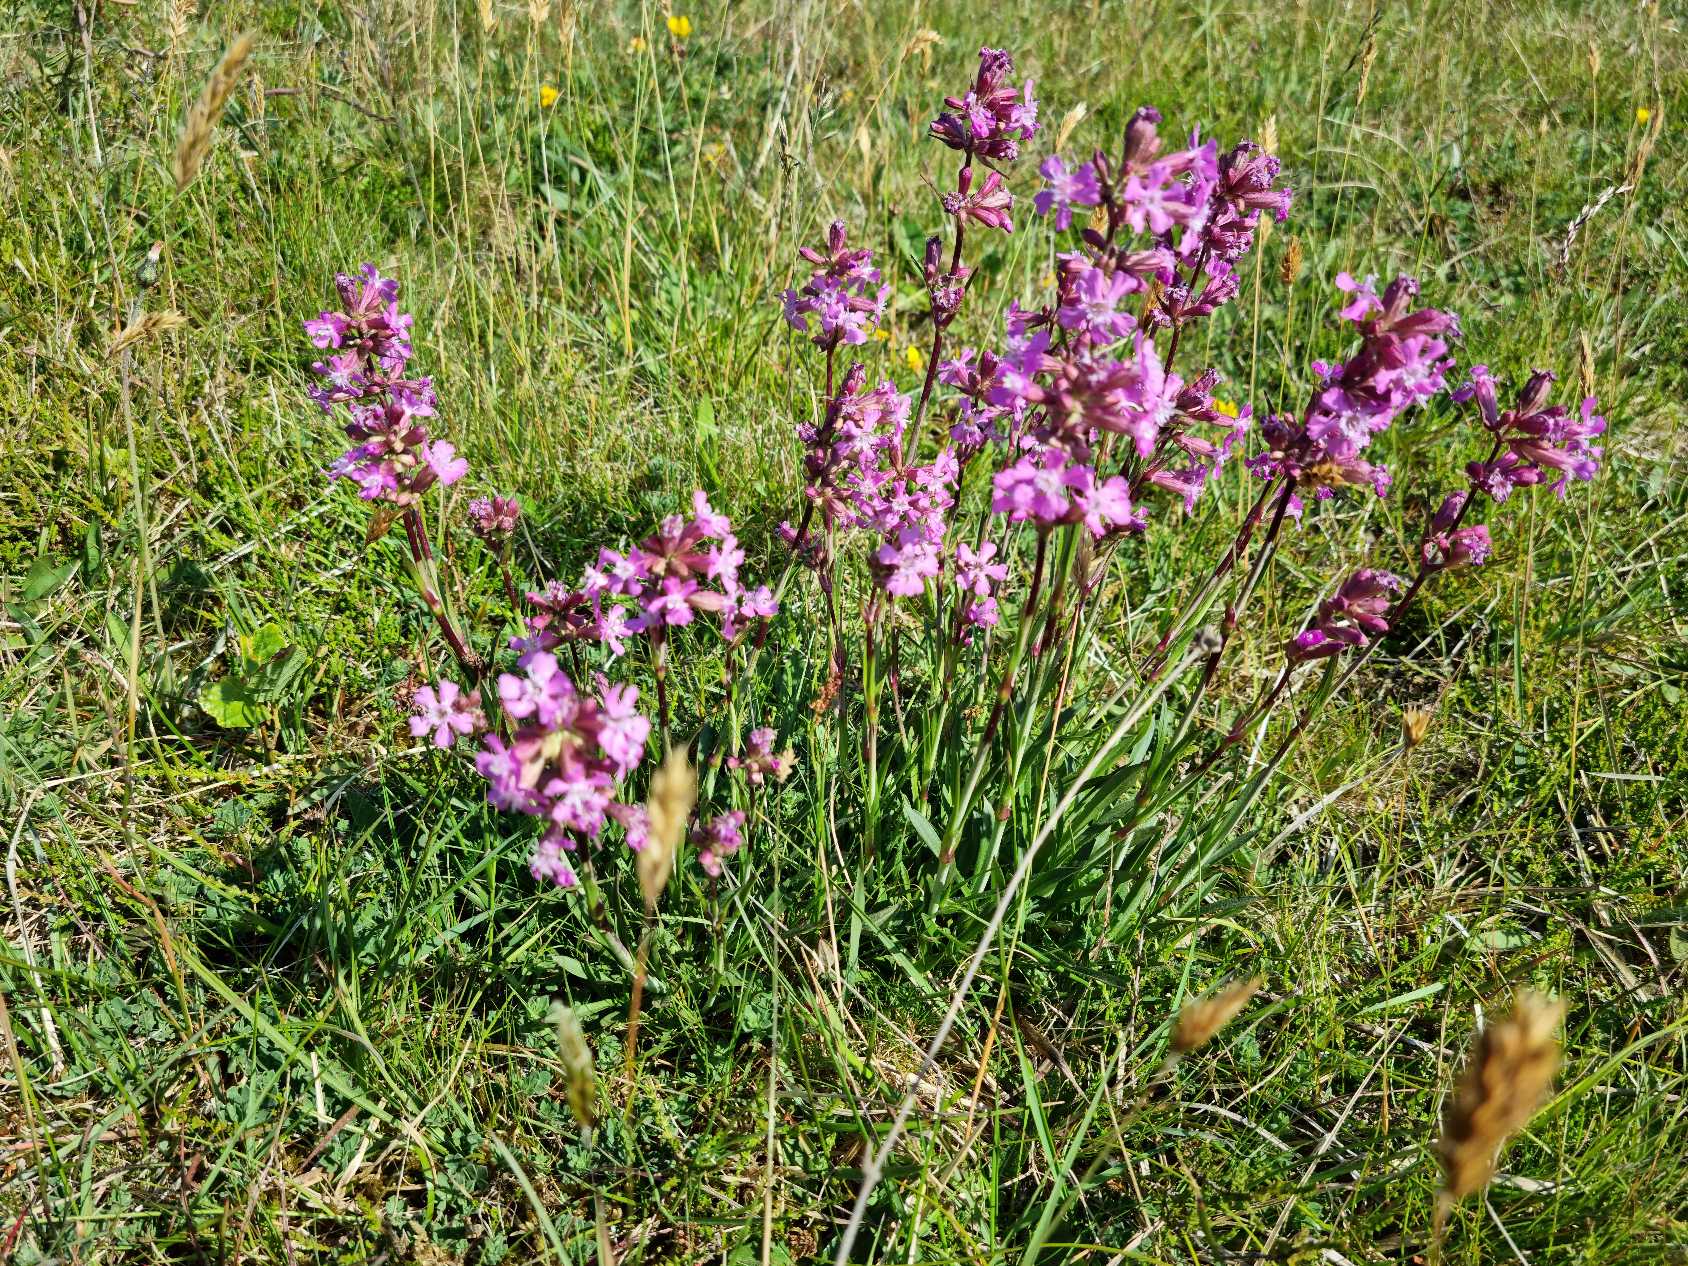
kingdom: Plantae
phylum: Tracheophyta
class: Magnoliopsida
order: Caryophyllales
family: Caryophyllaceae
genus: Viscaria
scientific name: Viscaria vulgaris
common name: Tjærenellike
